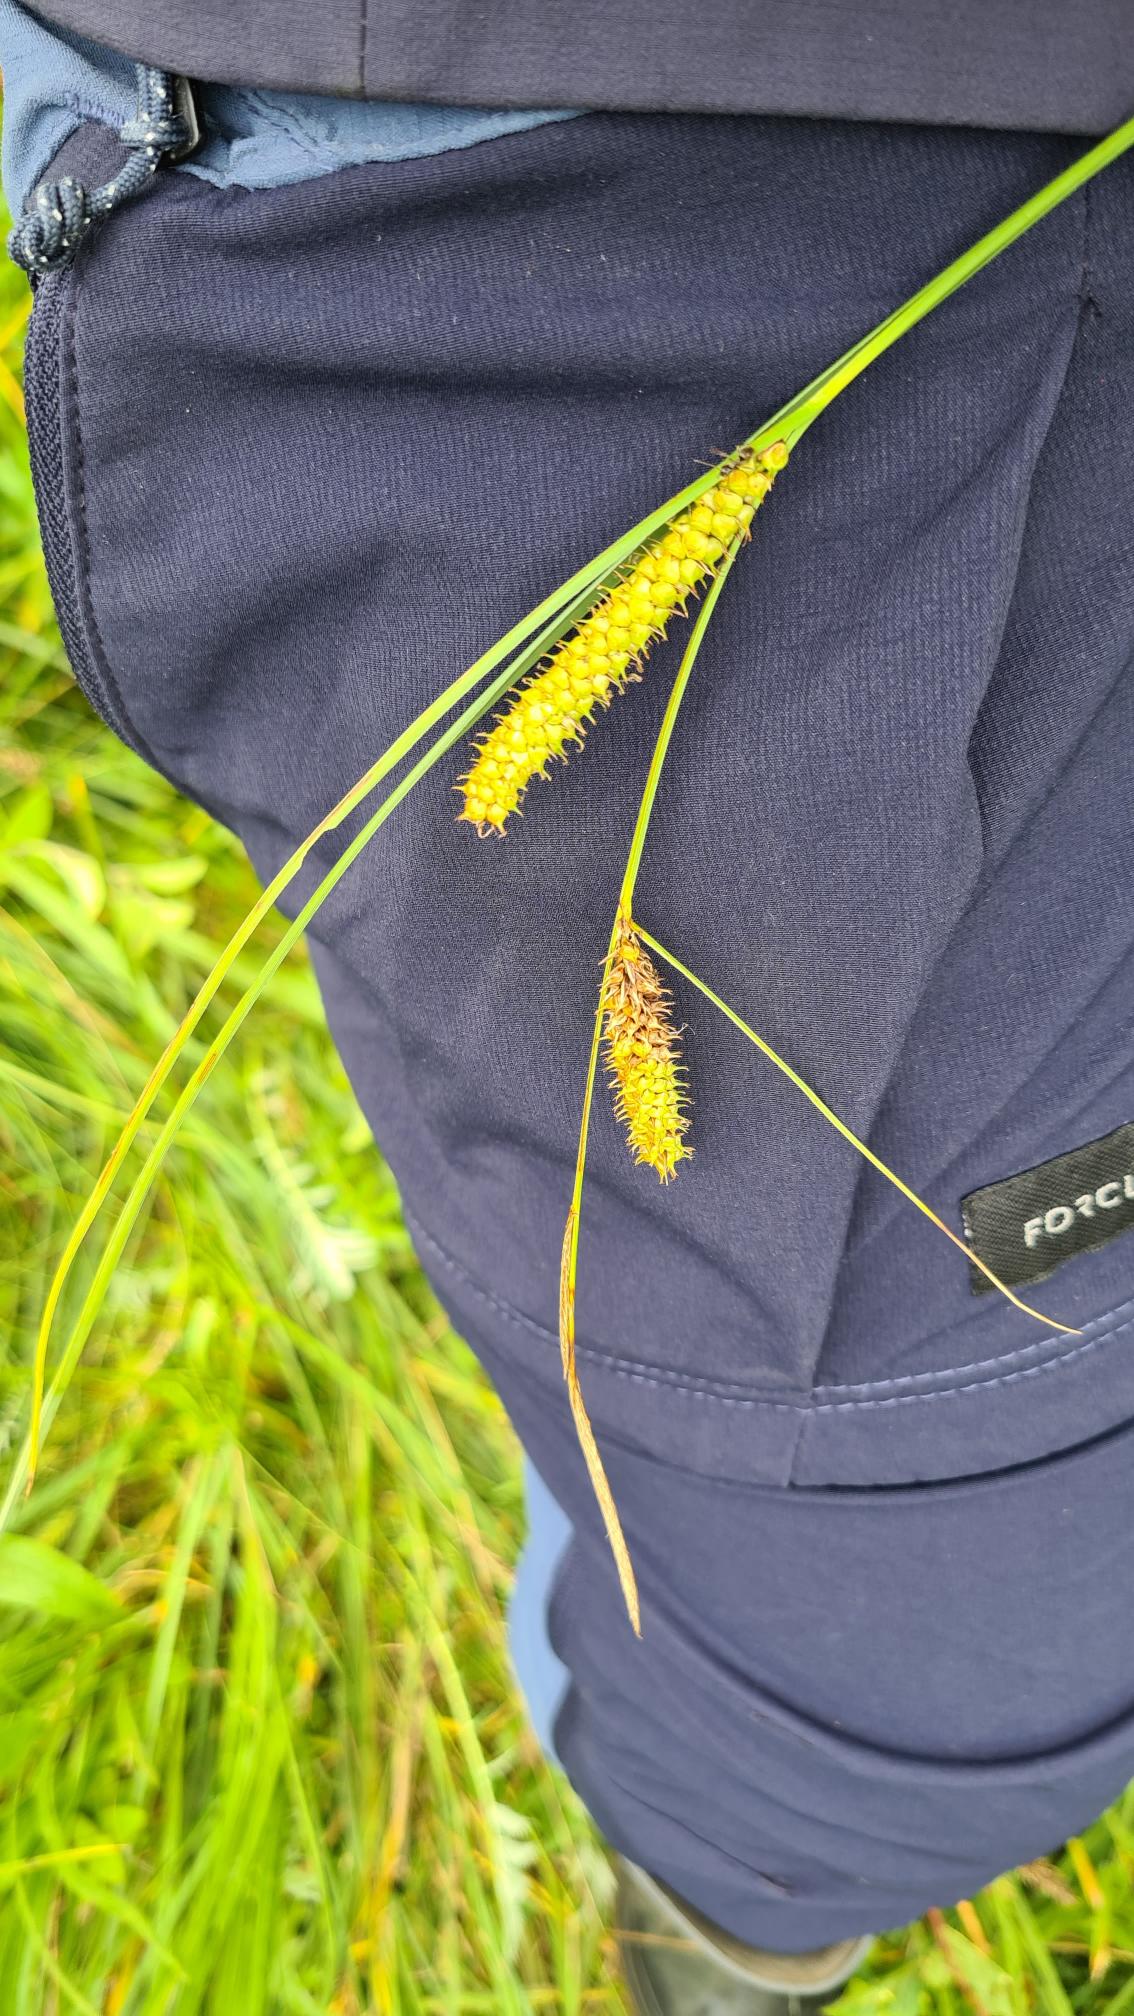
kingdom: Plantae
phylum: Tracheophyta
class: Liliopsida
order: Poales
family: Cyperaceae
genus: Carex
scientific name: Carex rostrata
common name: Næb-star
